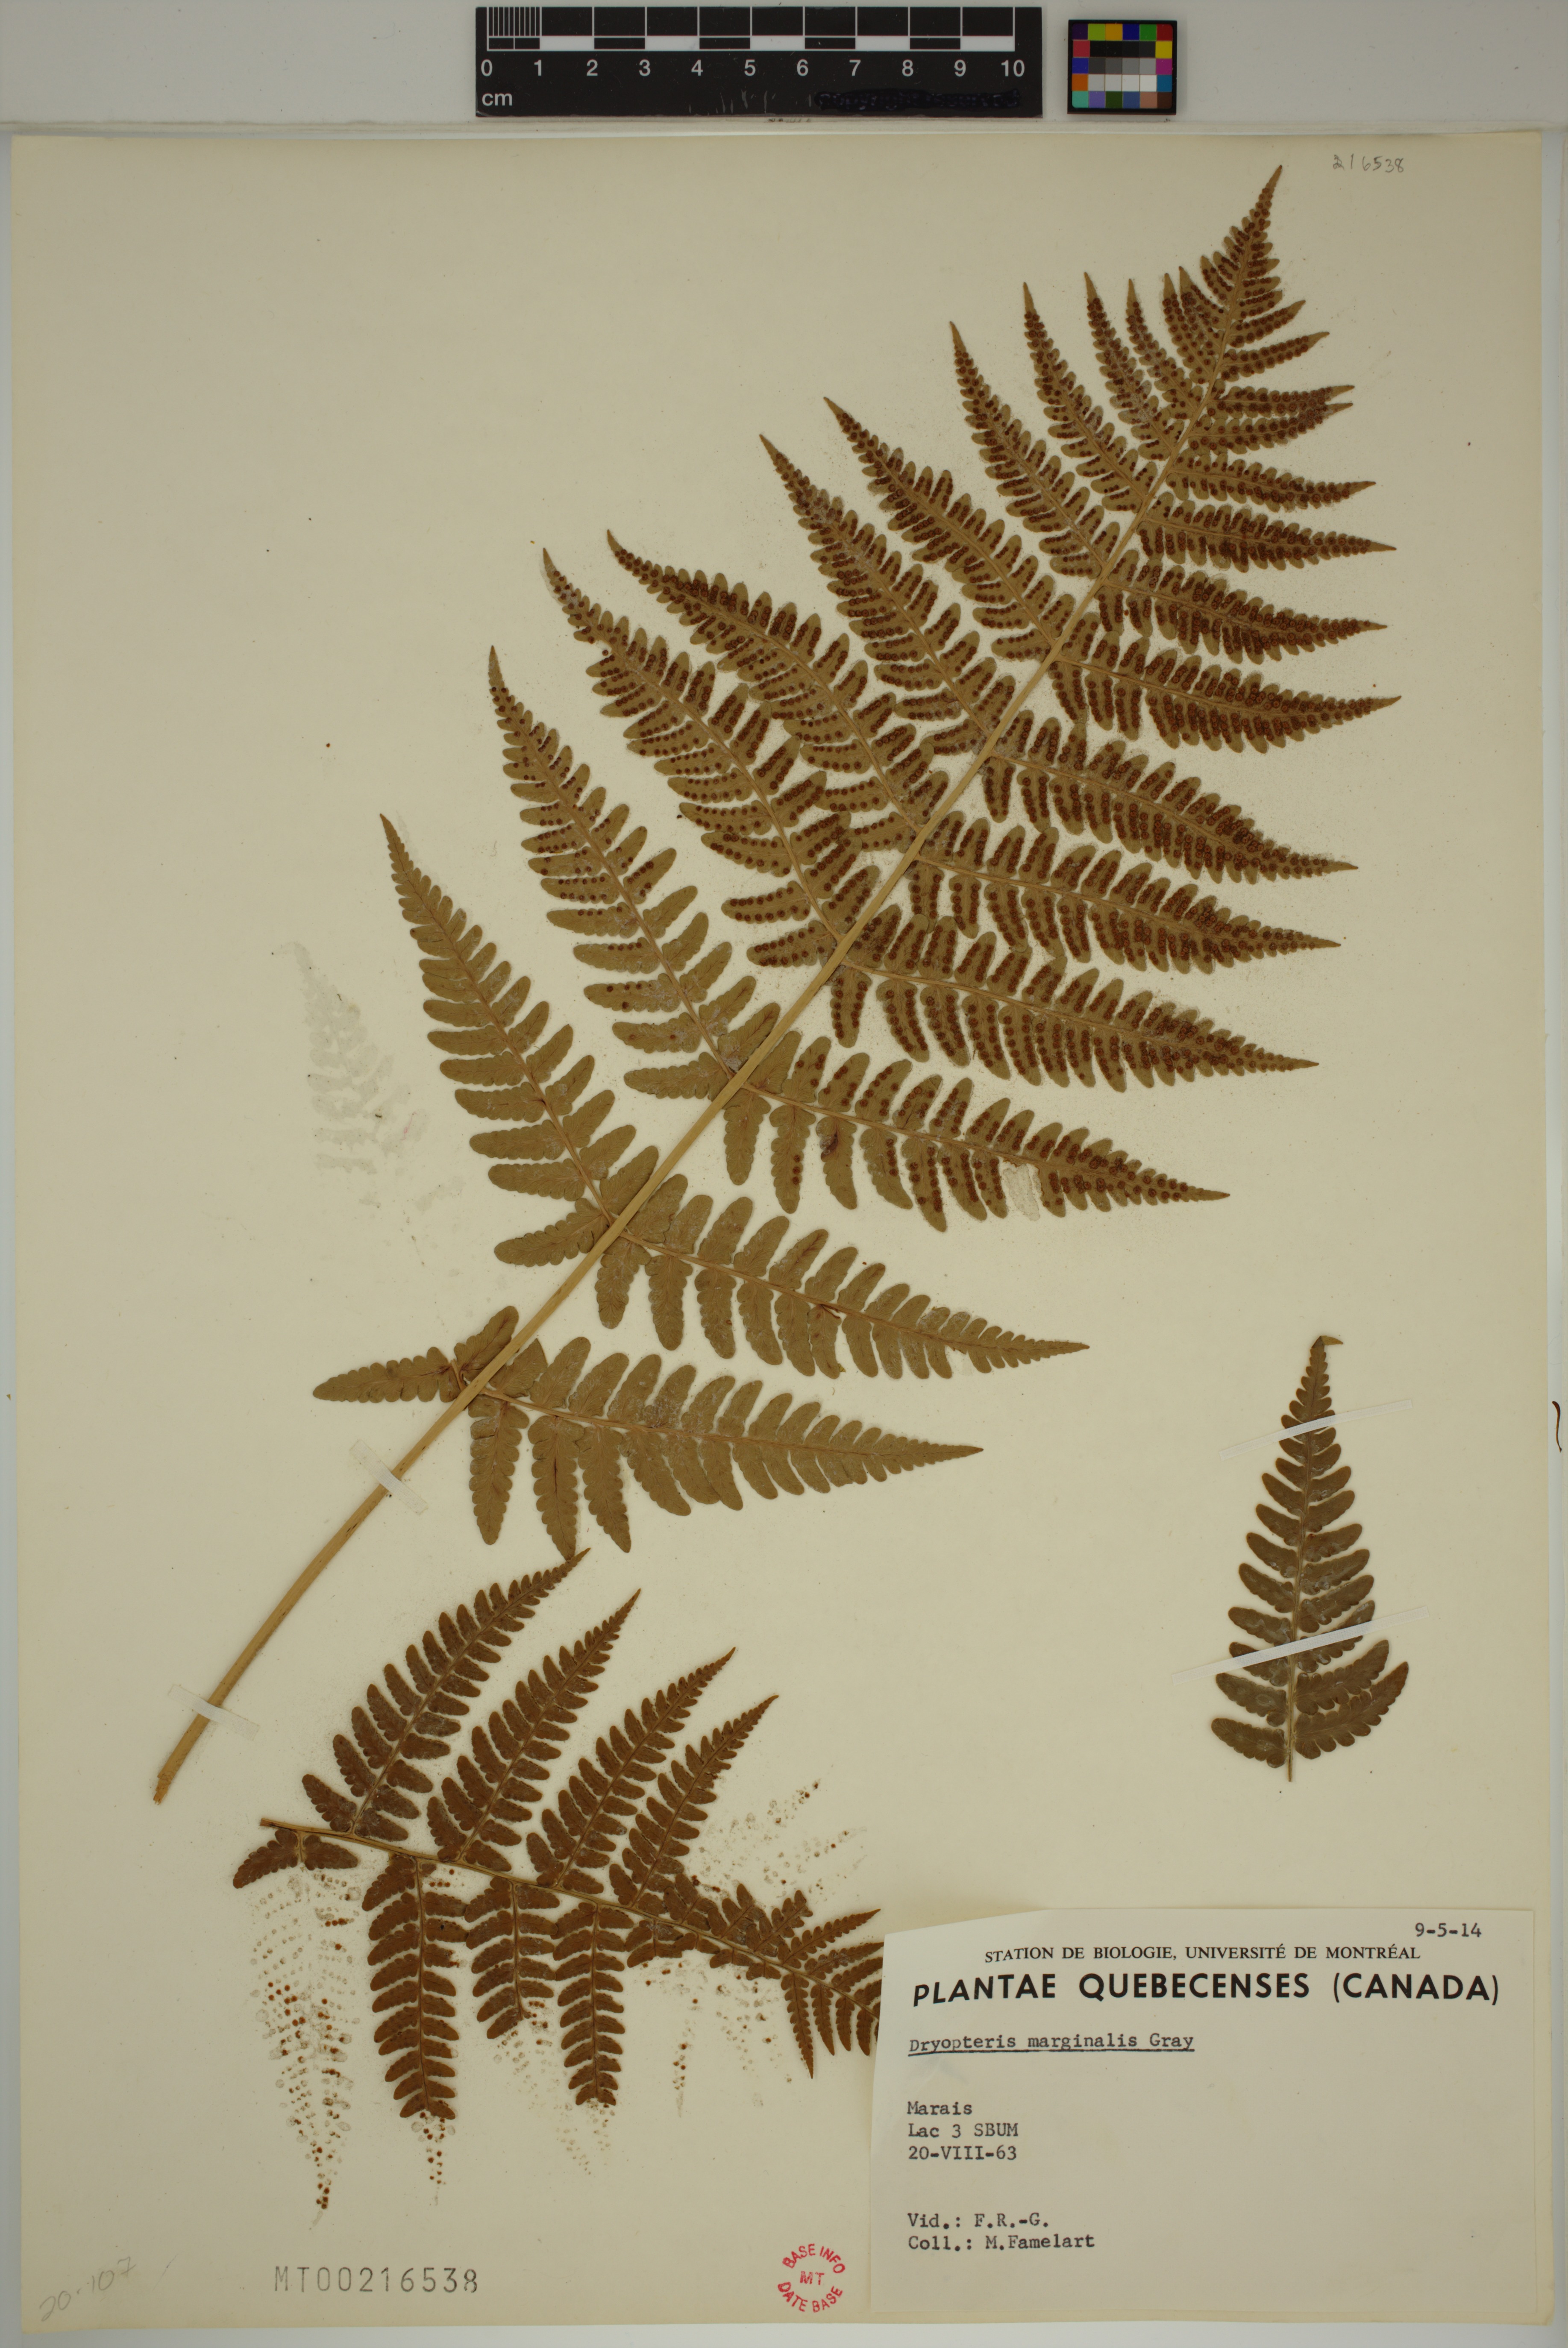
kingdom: Plantae
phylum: Tracheophyta
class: Polypodiopsida
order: Polypodiales
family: Dryopteridaceae
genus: Dryopteris
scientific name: Dryopteris marginalis
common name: Marginal wood fern
